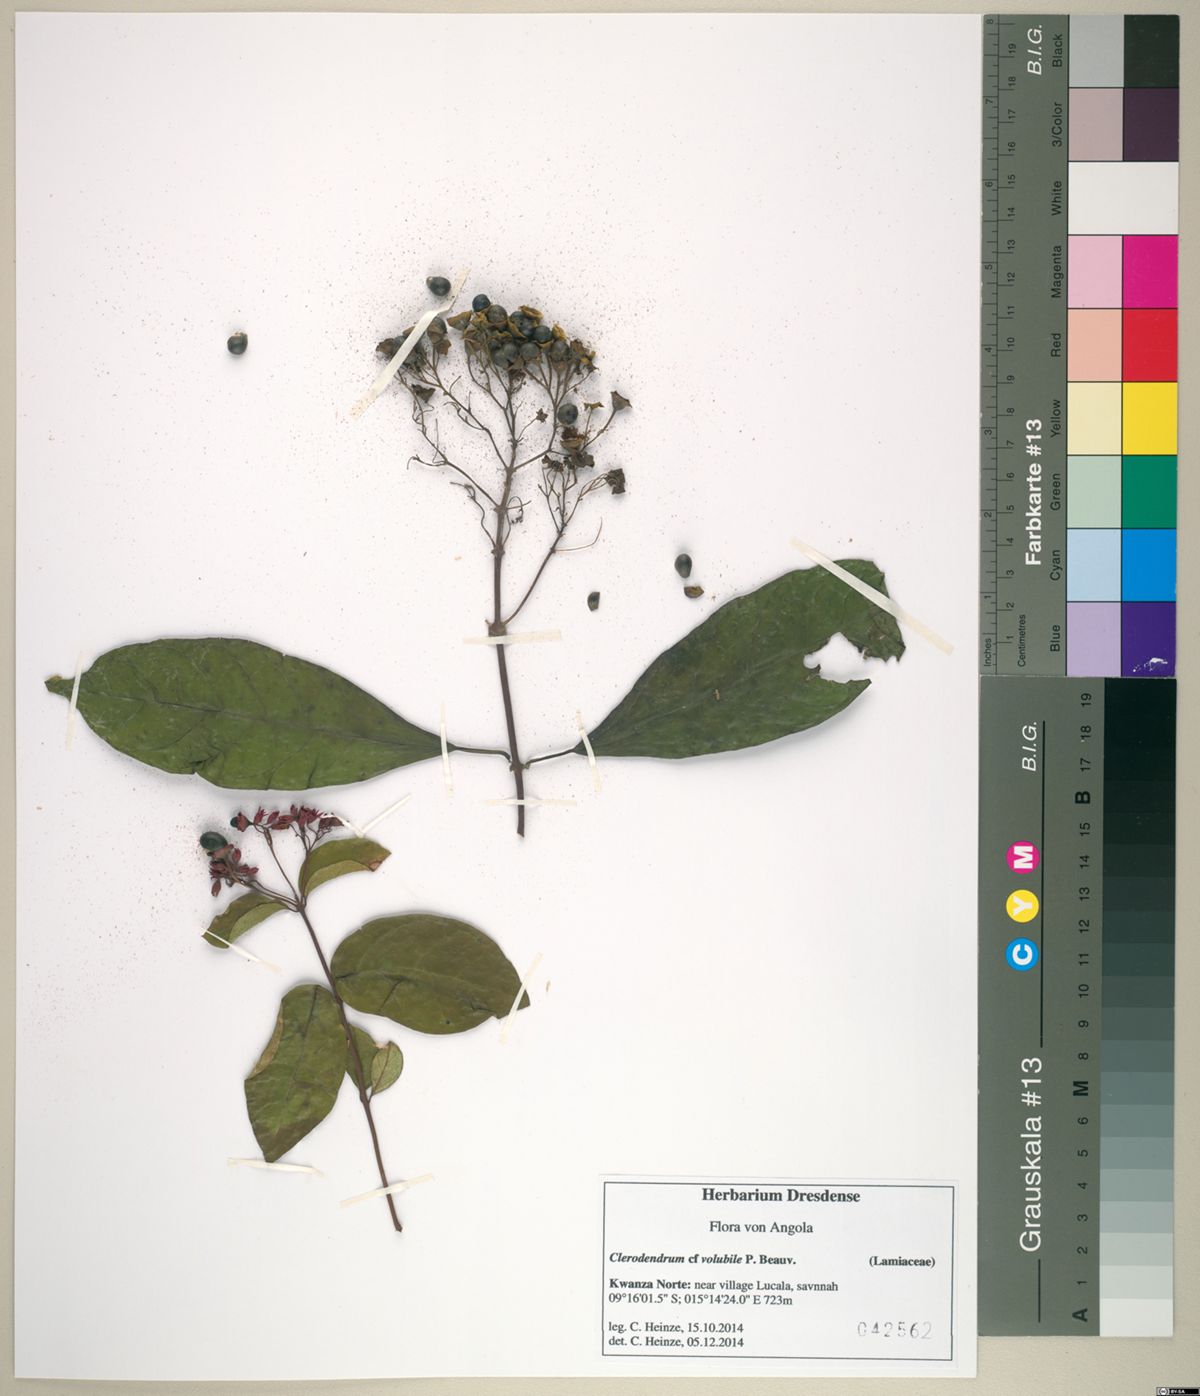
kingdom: Plantae
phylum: Tracheophyta
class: Magnoliopsida
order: Lamiales
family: Lamiaceae
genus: Clerodendrum
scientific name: Clerodendrum volubile
